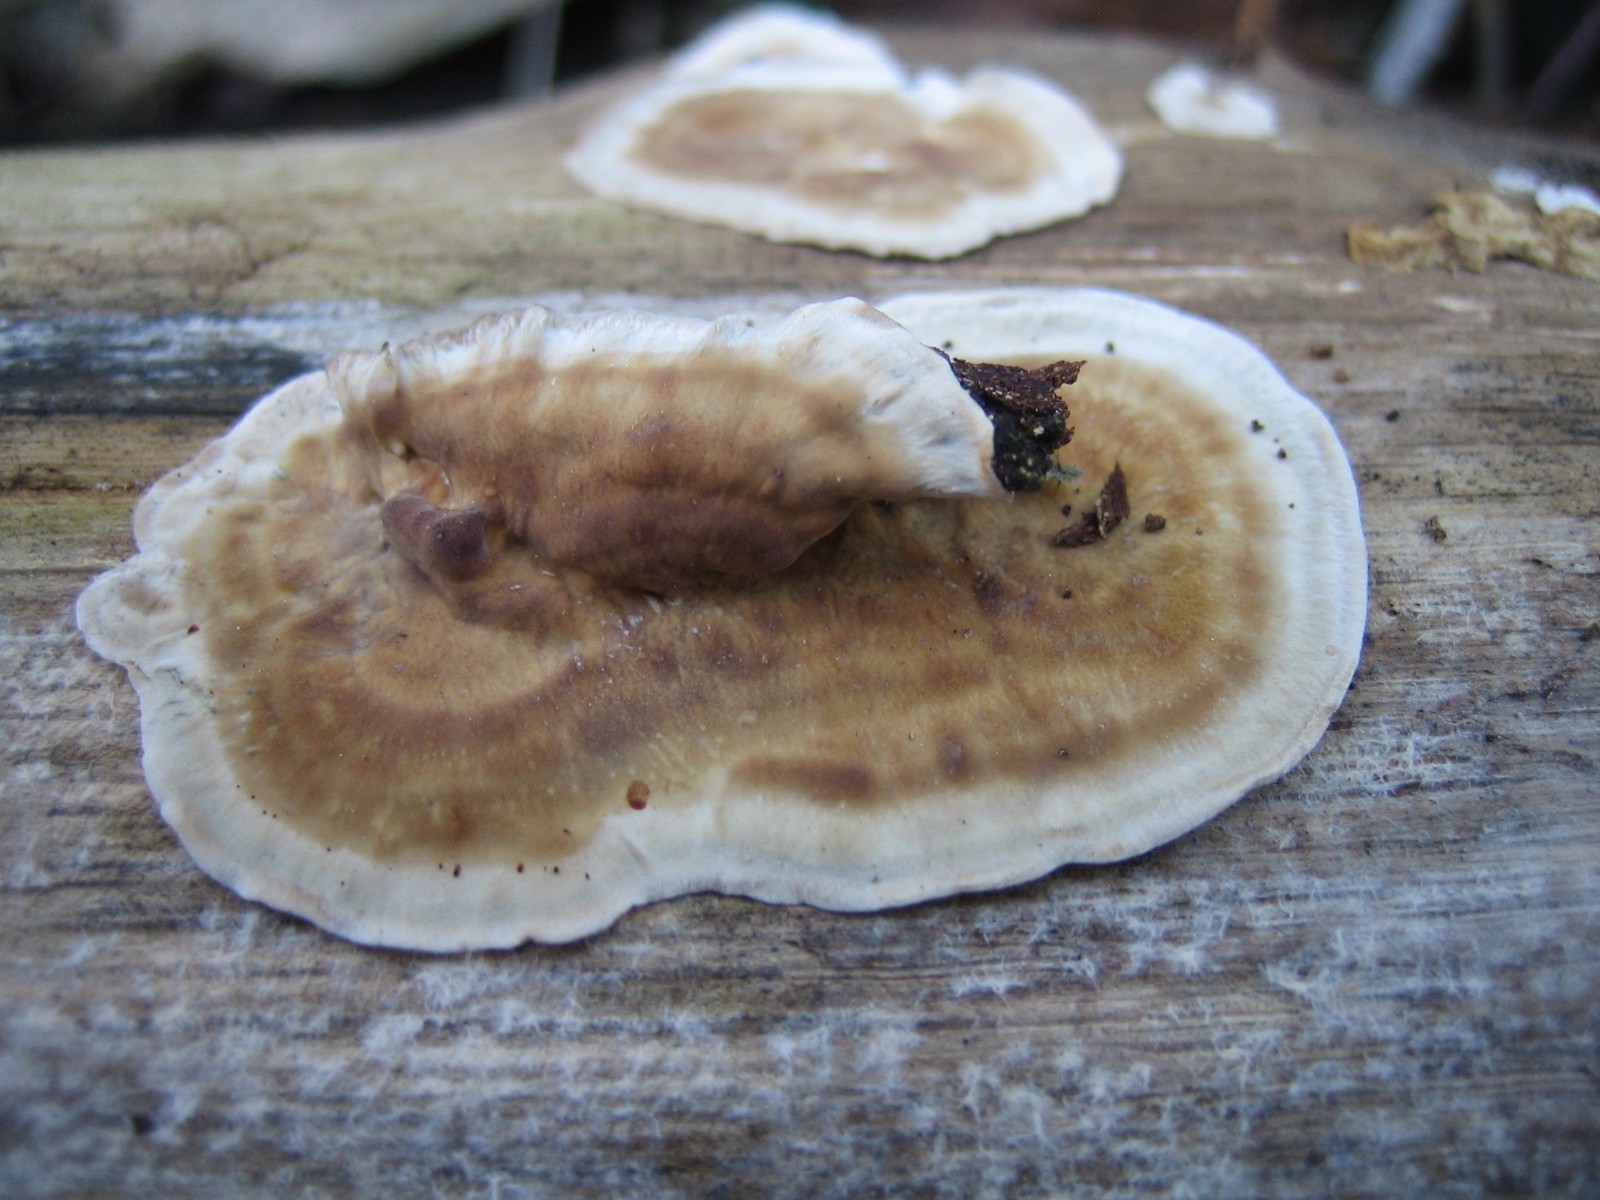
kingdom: Fungi
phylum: Basidiomycota
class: Agaricomycetes
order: Russulales
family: Stereaceae
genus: Stereum
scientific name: Stereum
